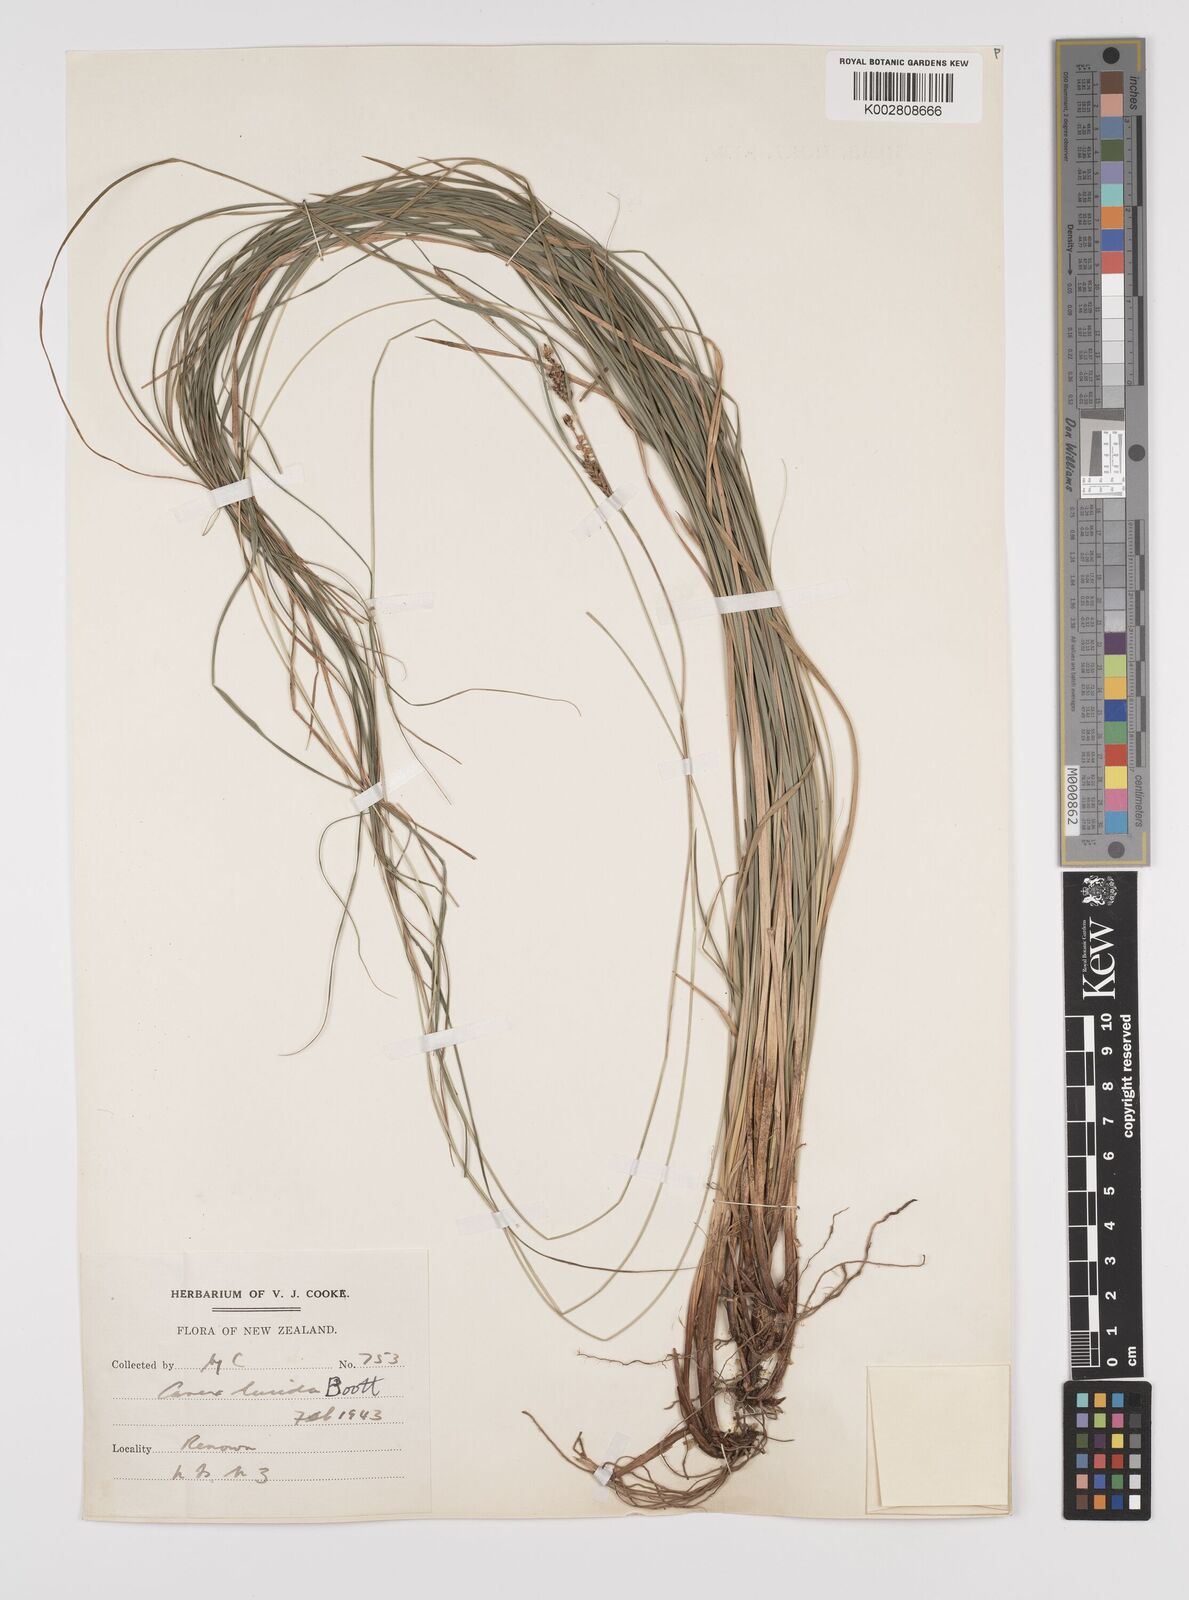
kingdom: Plantae
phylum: Tracheophyta
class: Liliopsida
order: Poales
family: Cyperaceae
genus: Carex
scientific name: Carex flagellifera
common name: Glen murray tussock
